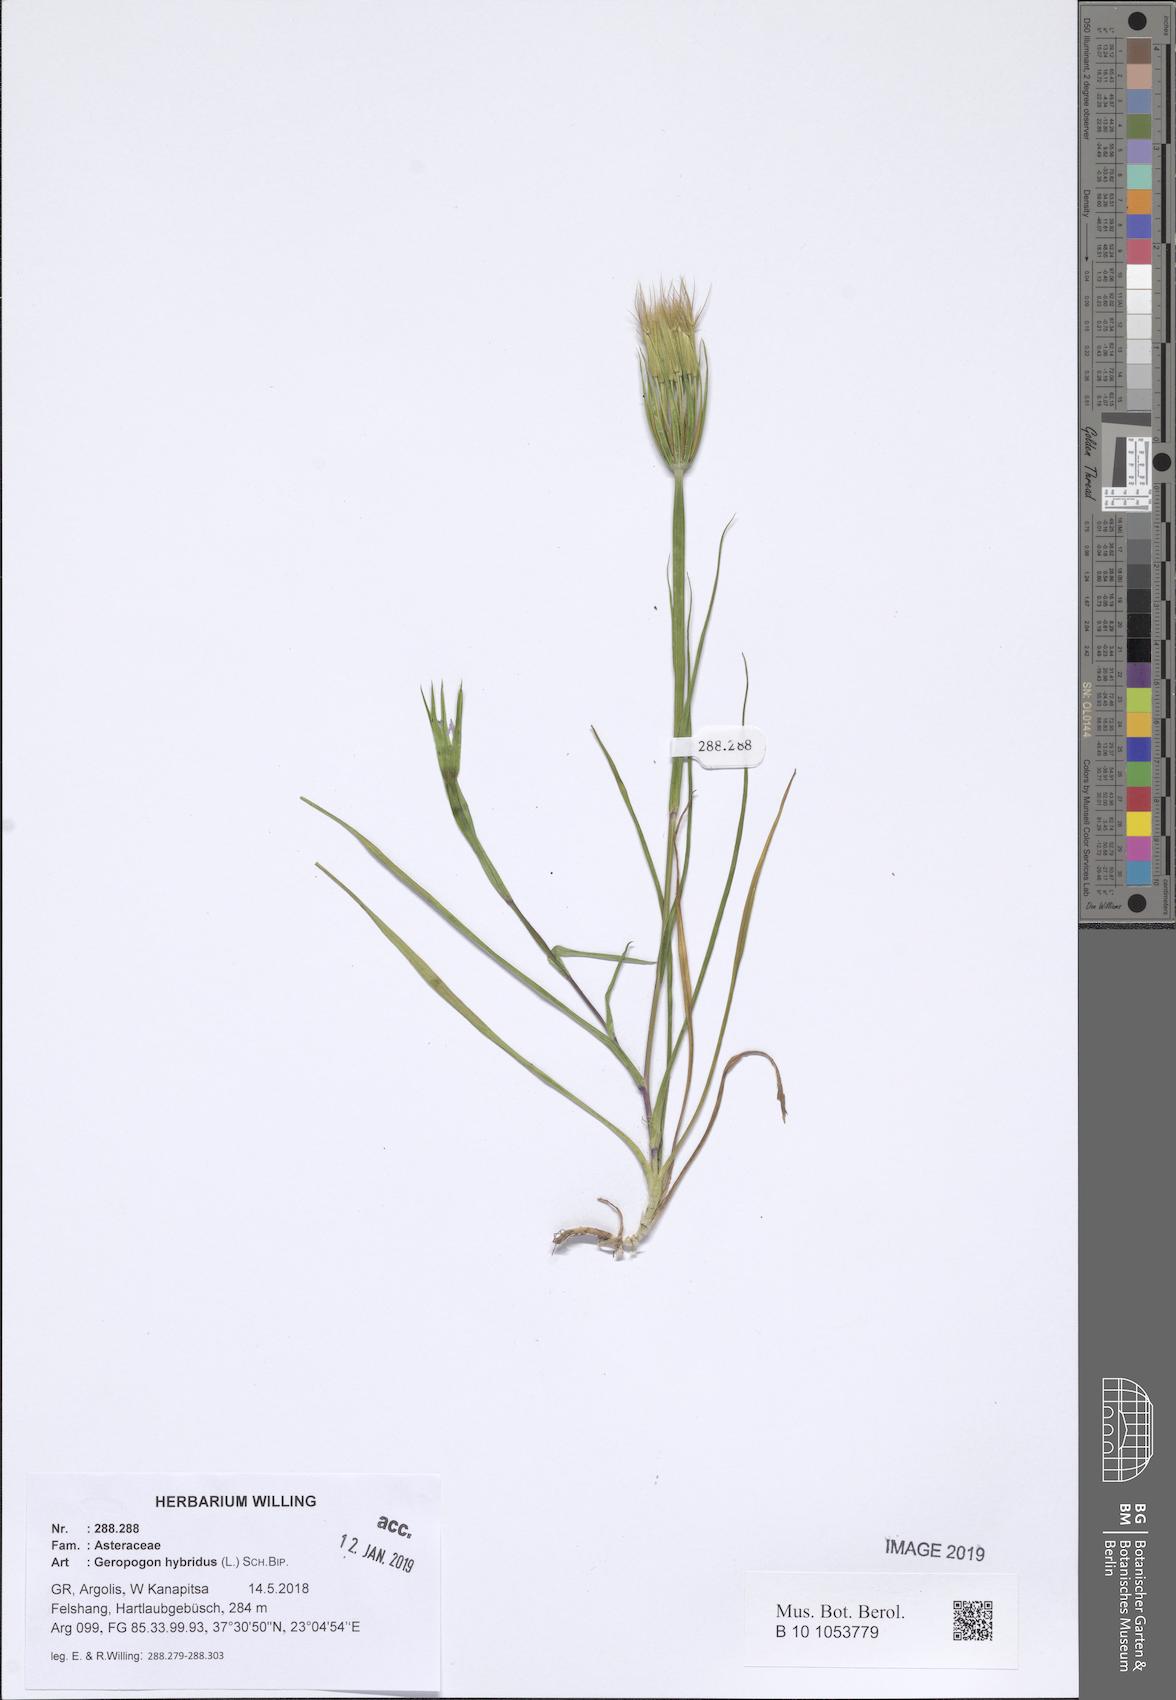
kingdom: Plantae
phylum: Tracheophyta
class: Magnoliopsida
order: Asterales
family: Asteraceae
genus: Geropogon
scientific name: Geropogon hybridus
